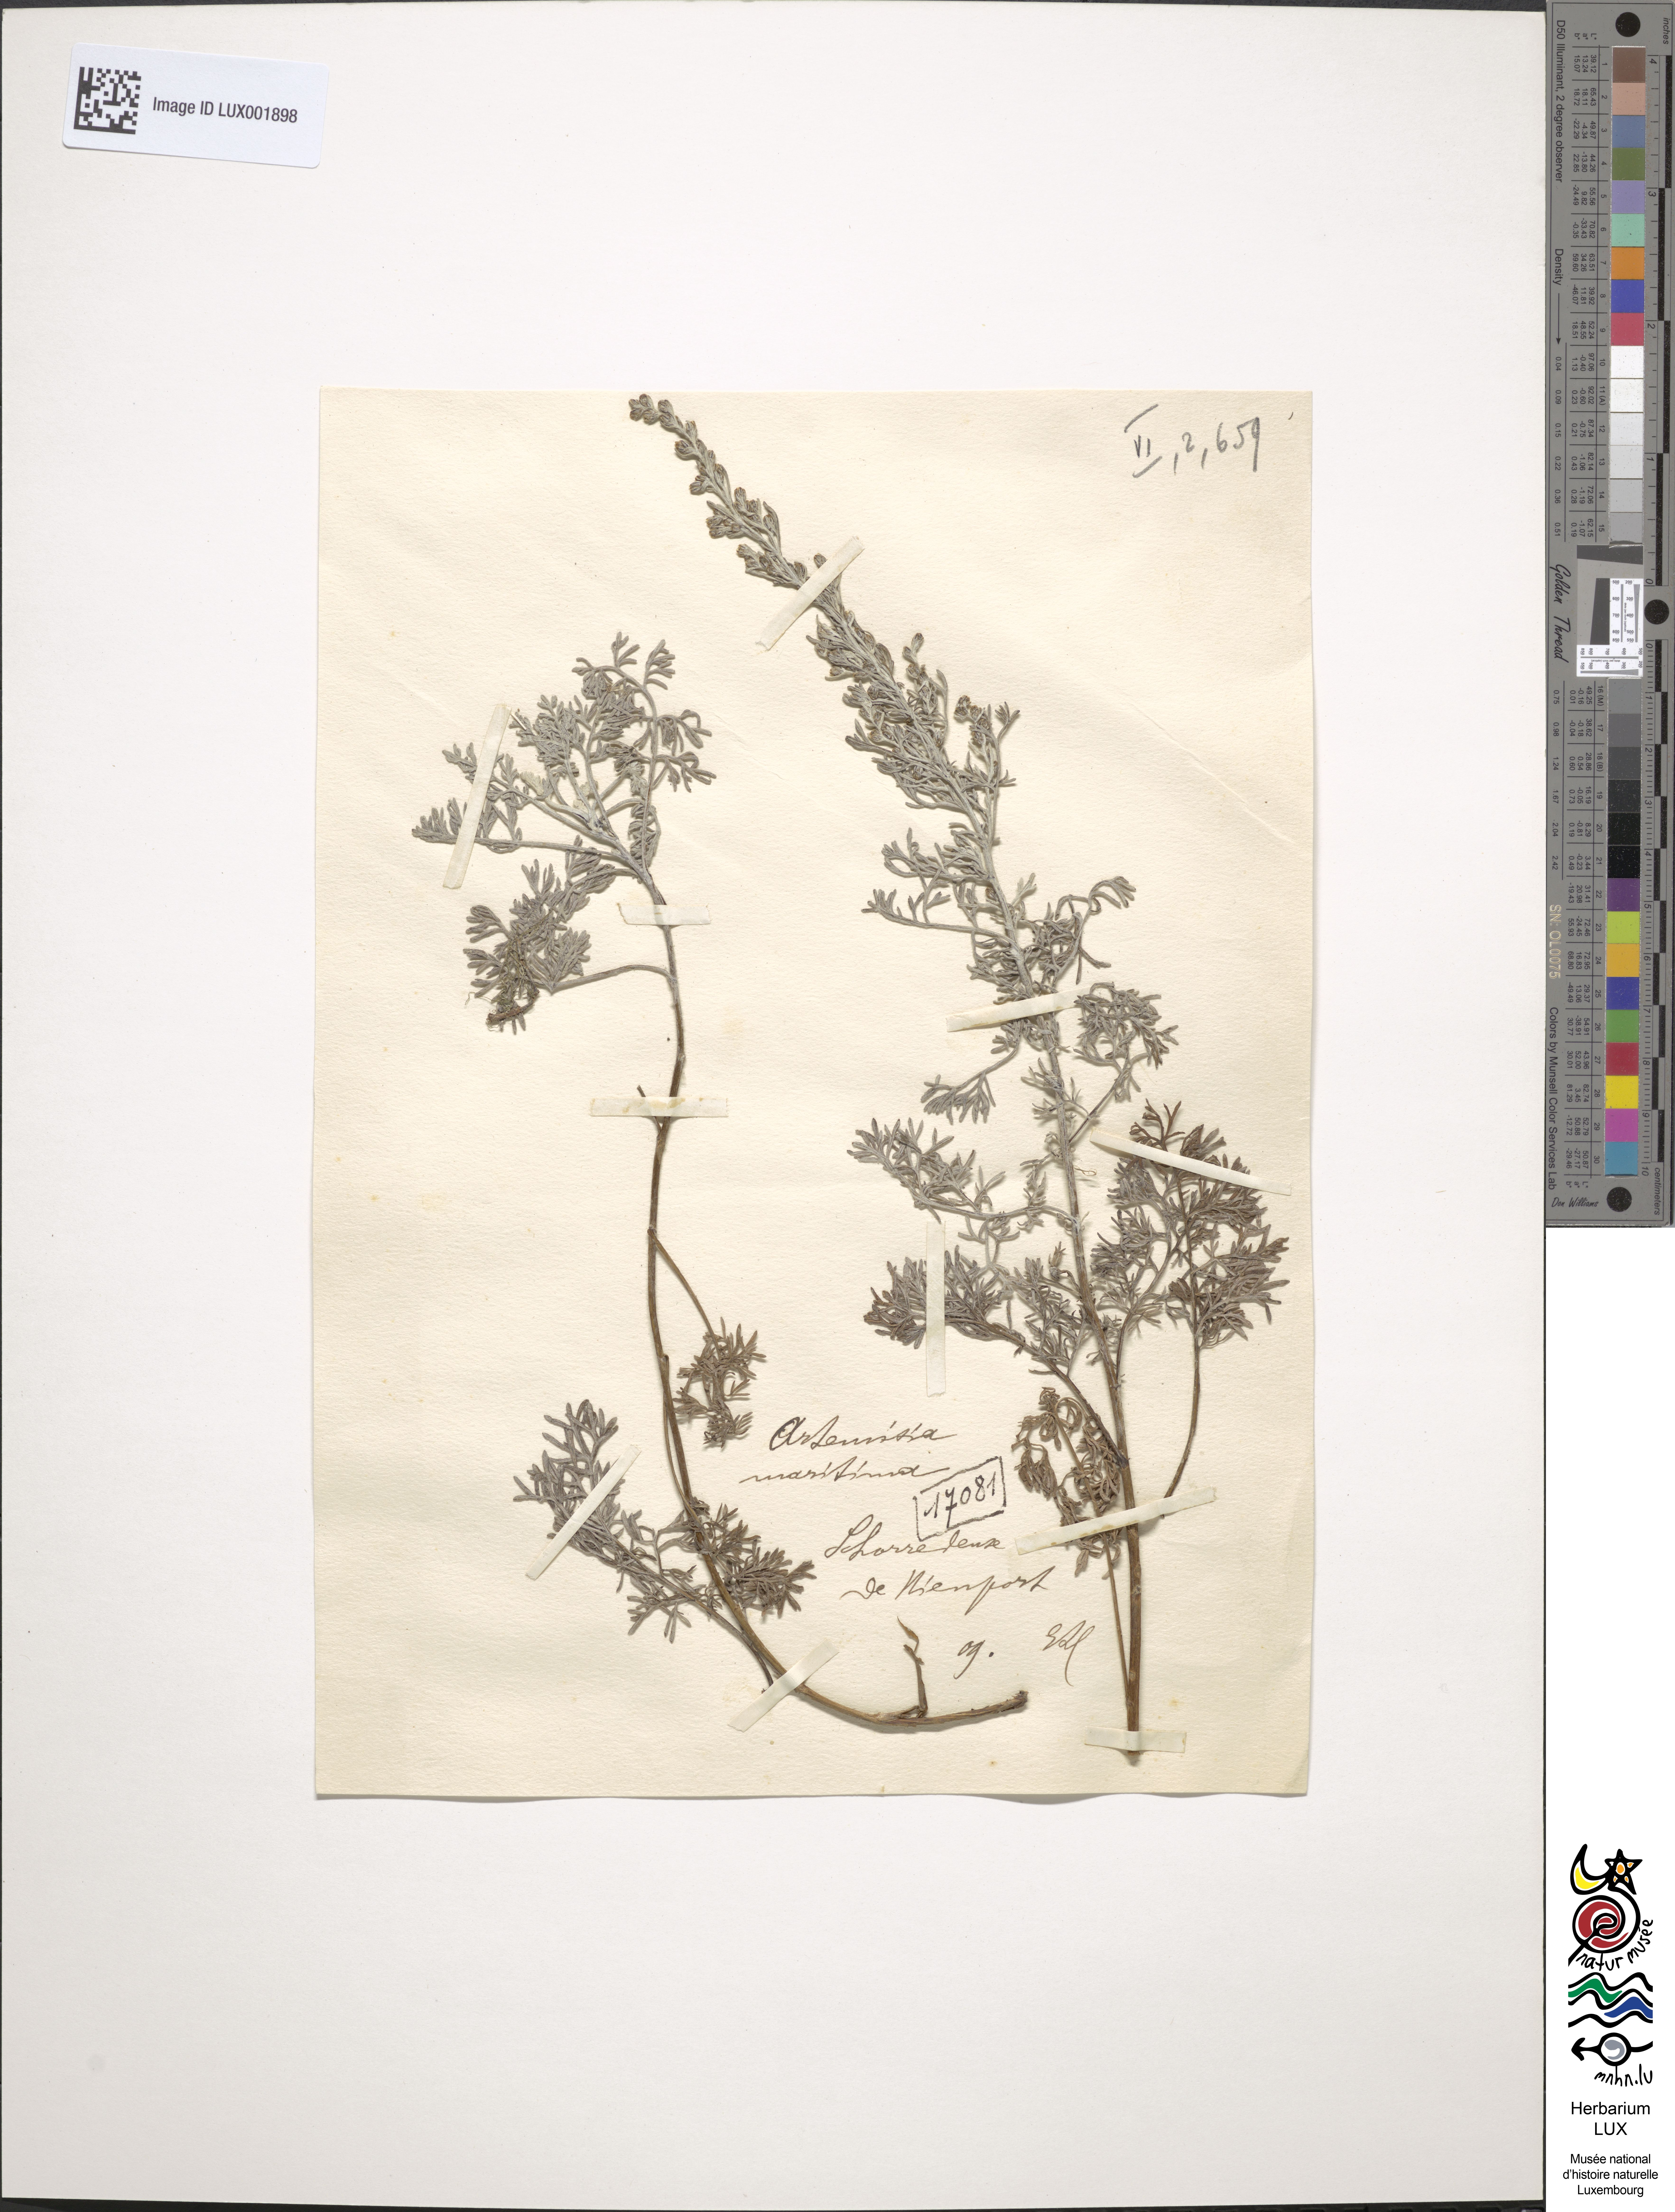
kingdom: Plantae
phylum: Tracheophyta
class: Magnoliopsida
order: Asterales
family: Asteraceae
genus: Artemisia
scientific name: Artemisia maritima
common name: Wormseed
